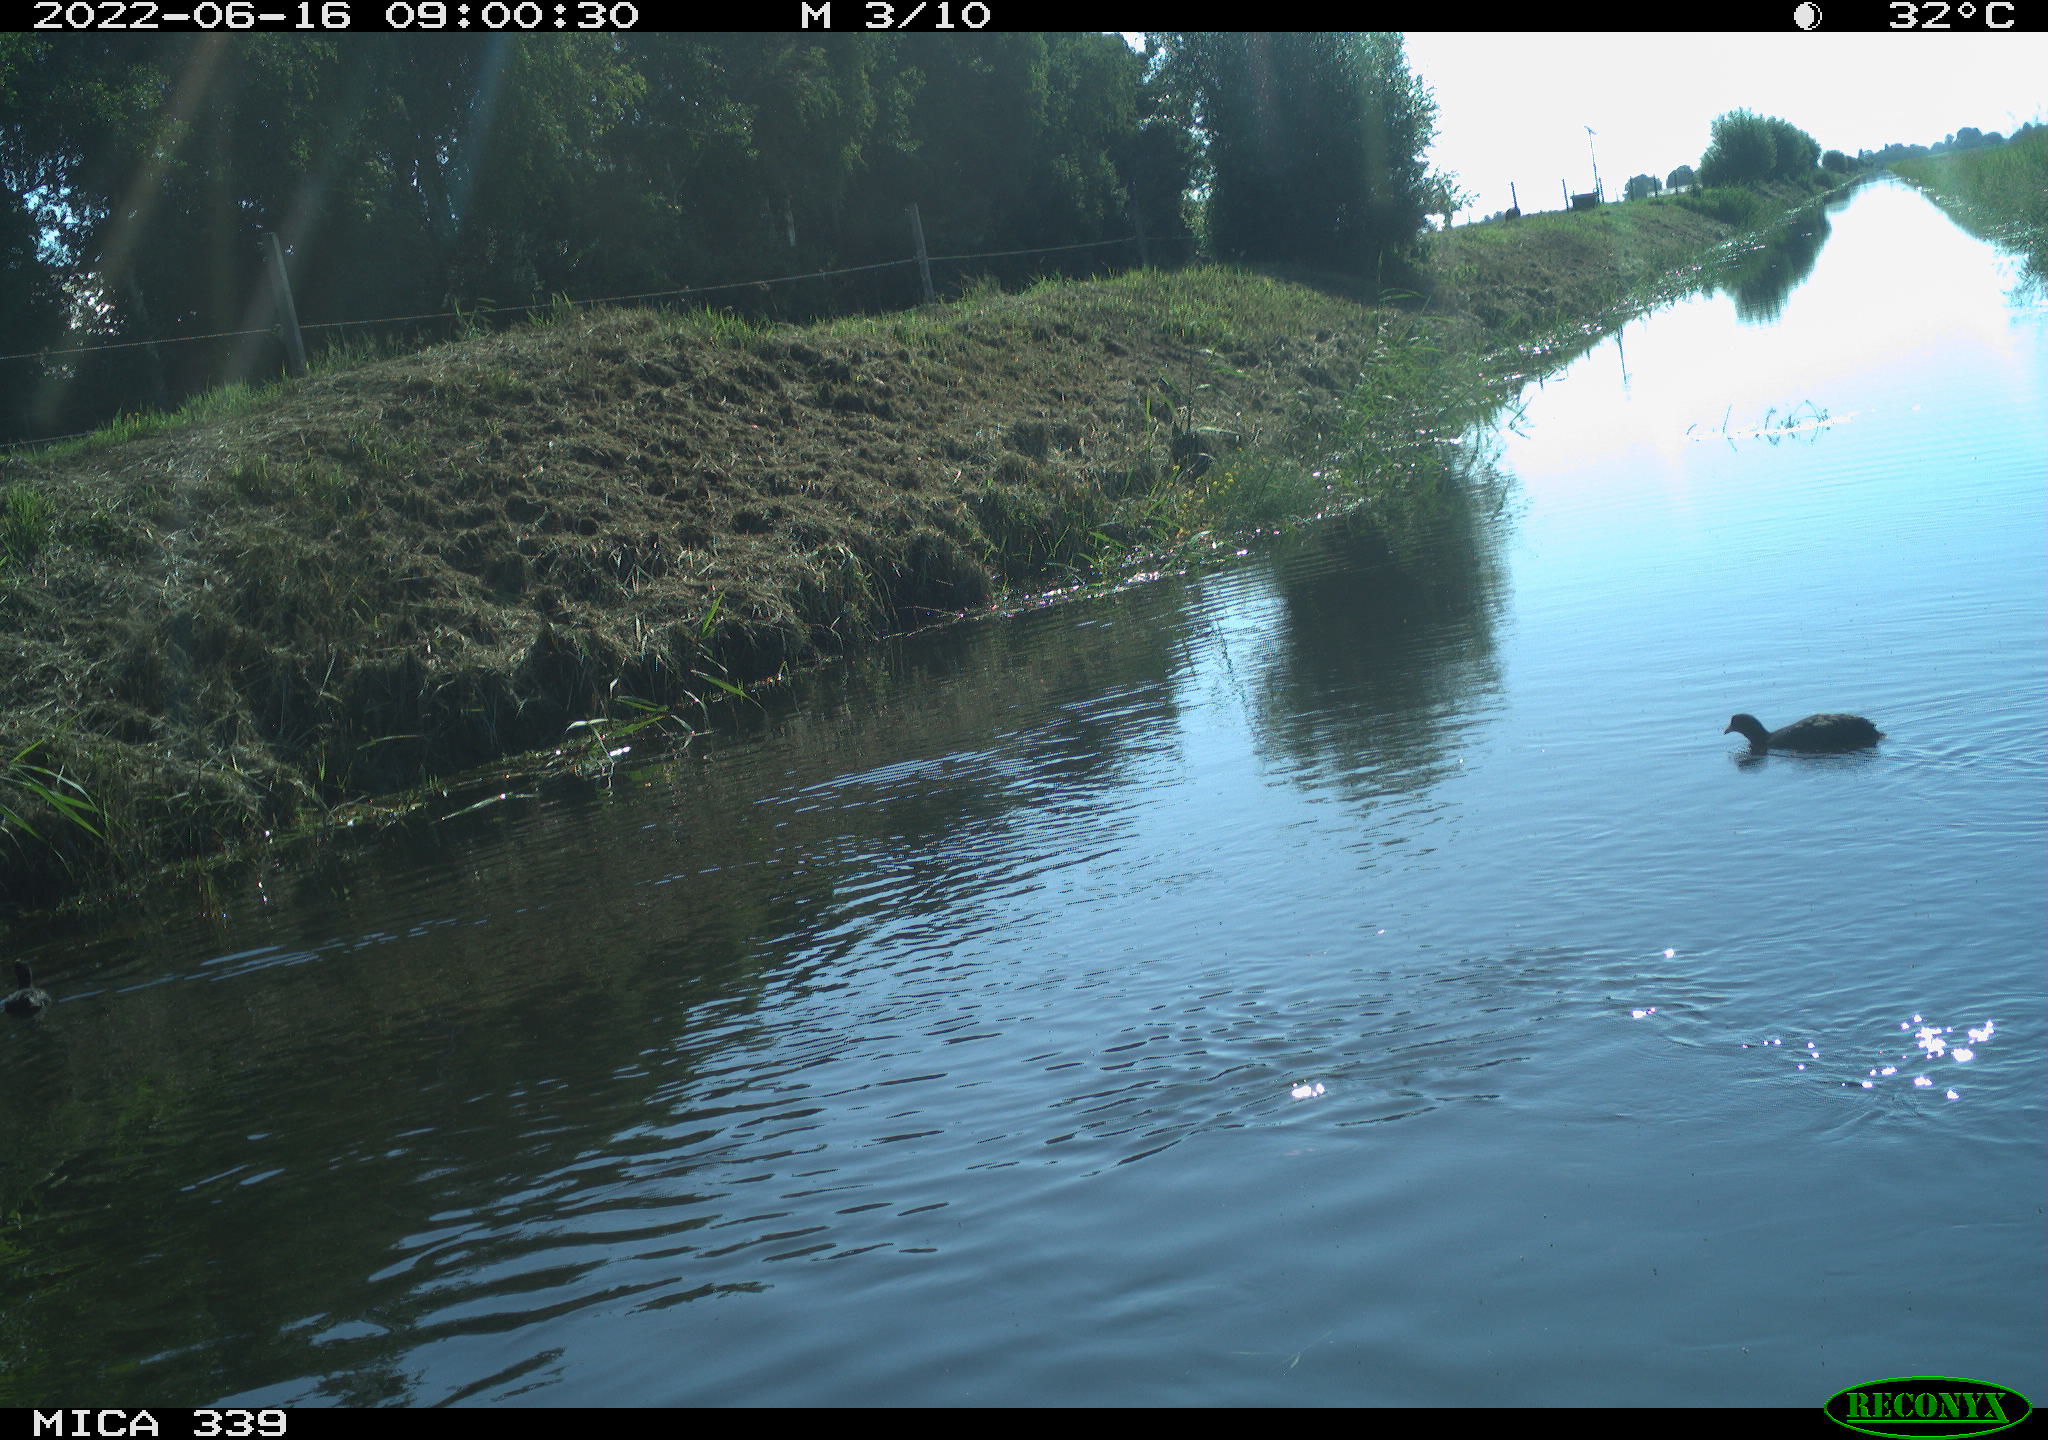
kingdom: Animalia
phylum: Chordata
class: Aves
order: Gruiformes
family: Rallidae
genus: Fulica
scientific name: Fulica atra
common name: Eurasian coot
